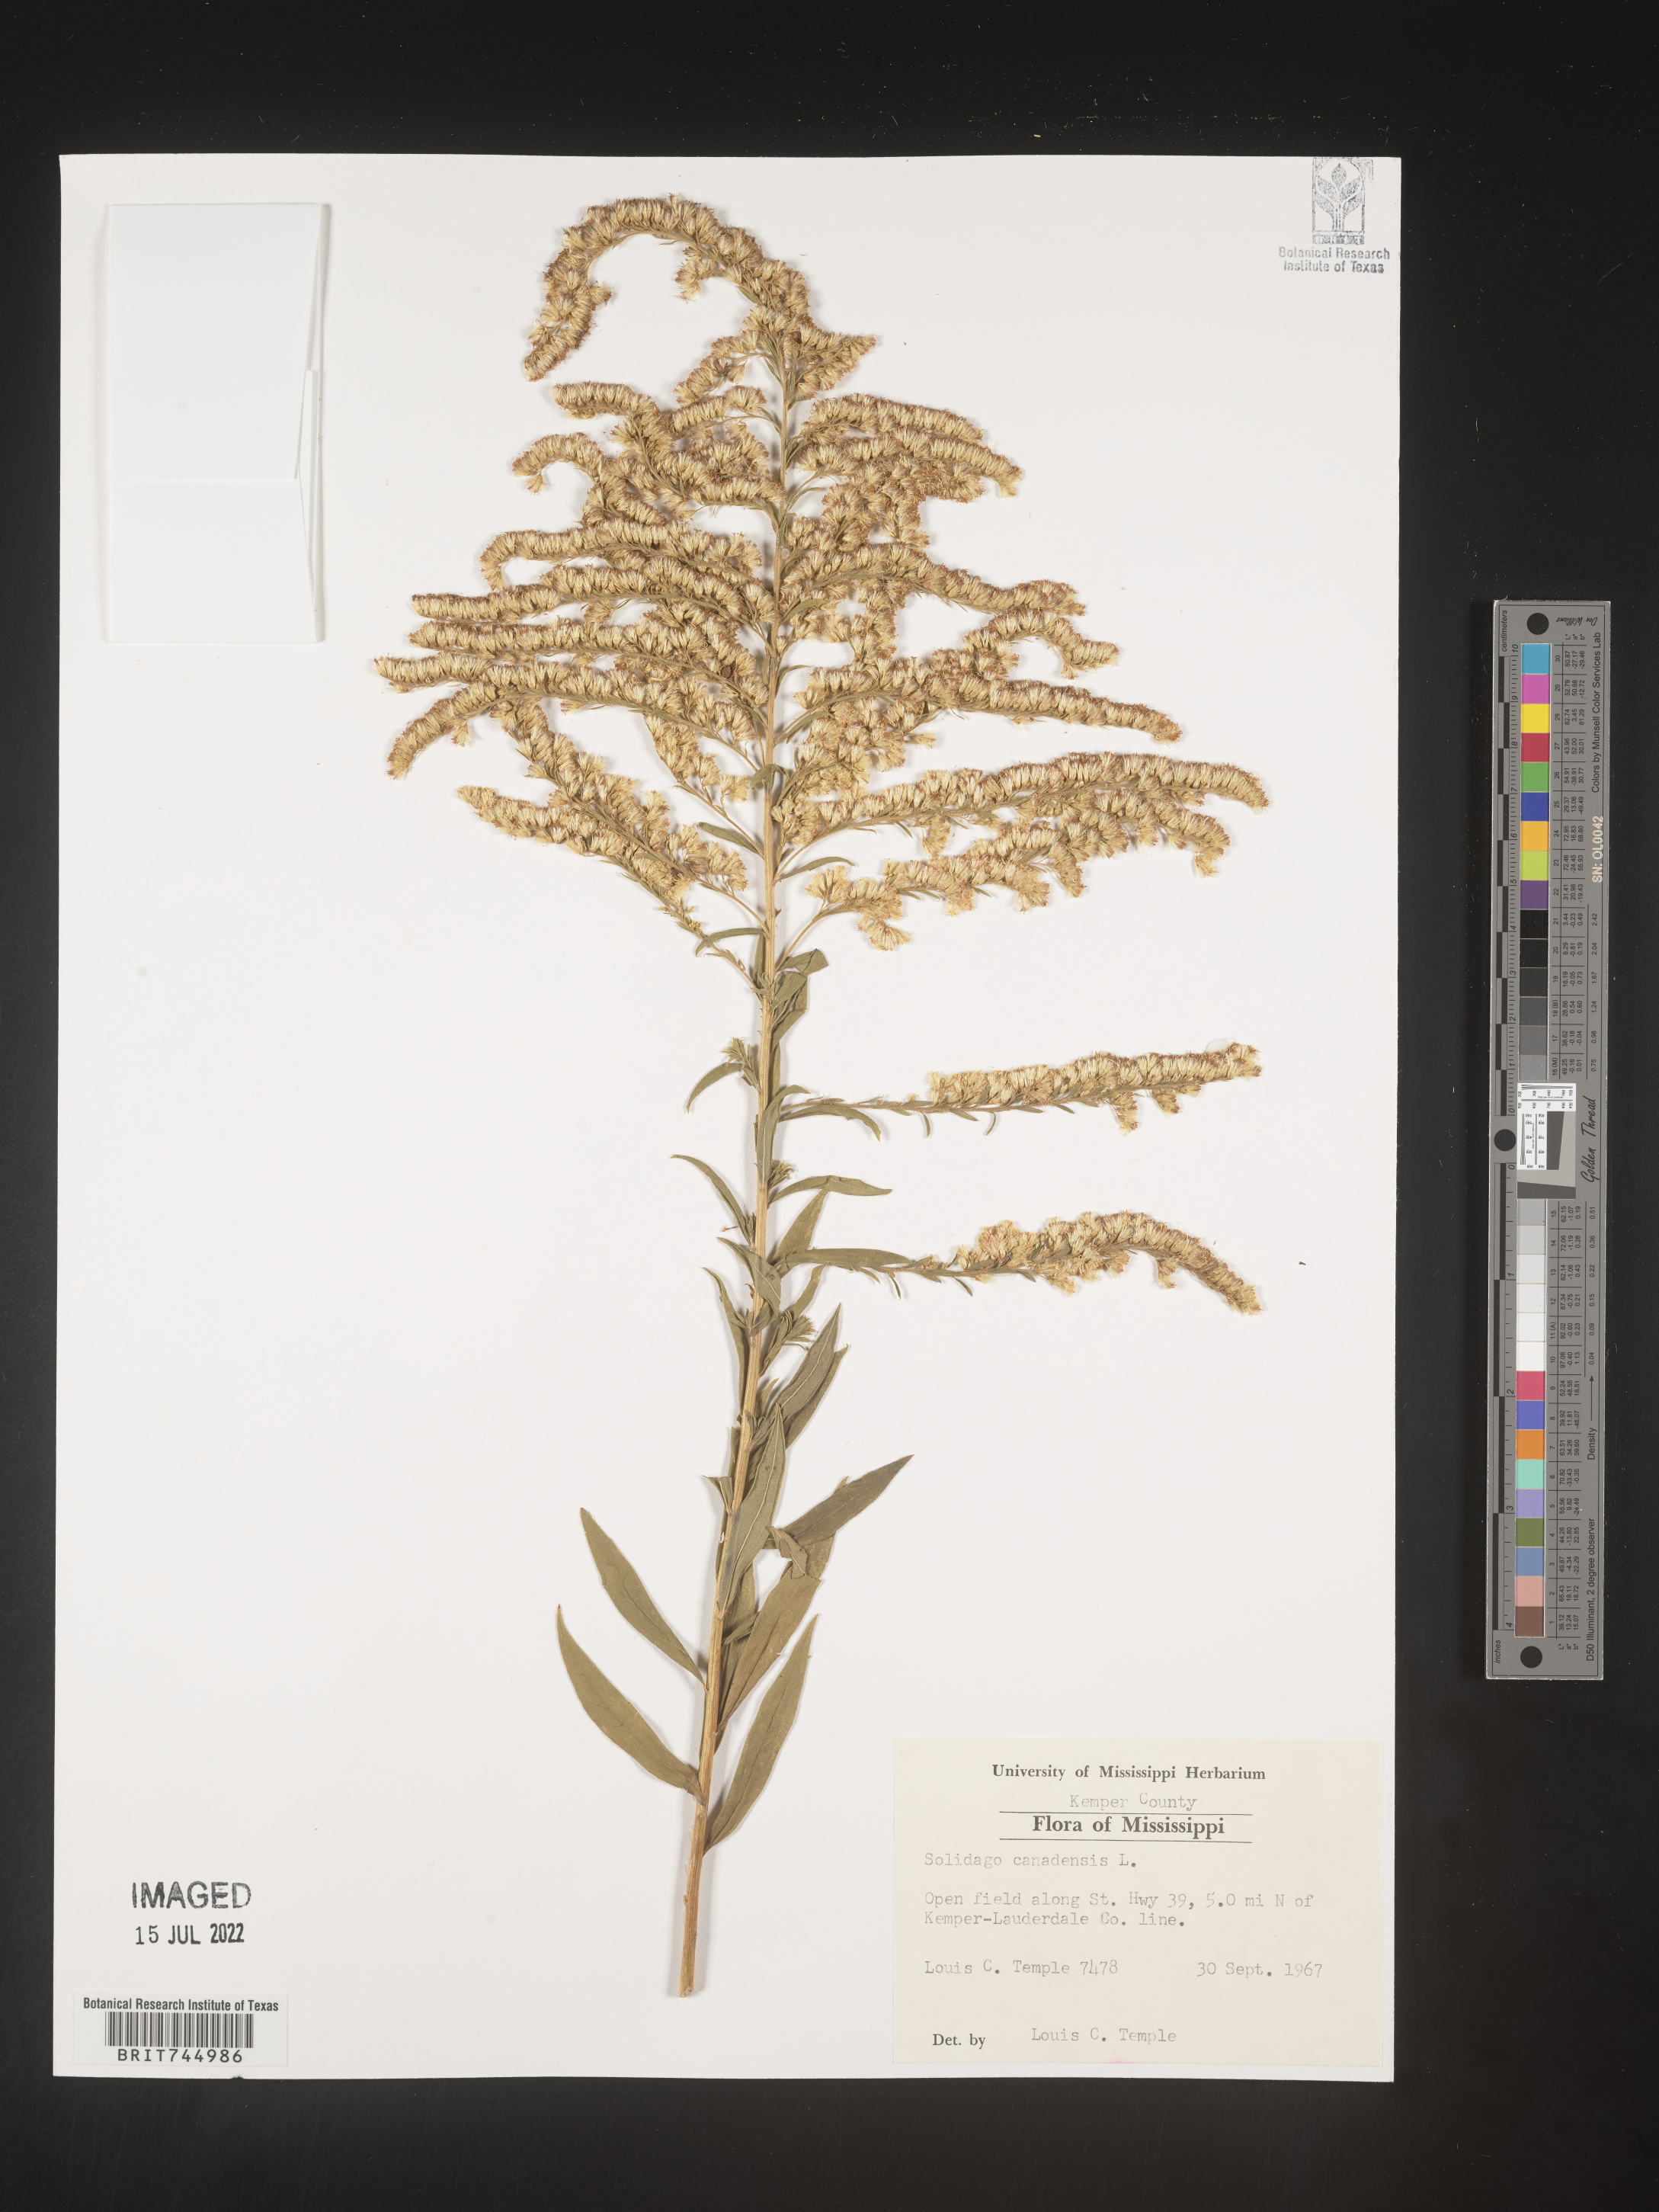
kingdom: Plantae
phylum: Tracheophyta
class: Magnoliopsida
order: Asterales
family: Asteraceae
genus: Solidago
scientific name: Solidago canadensis
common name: Canada goldenrod
